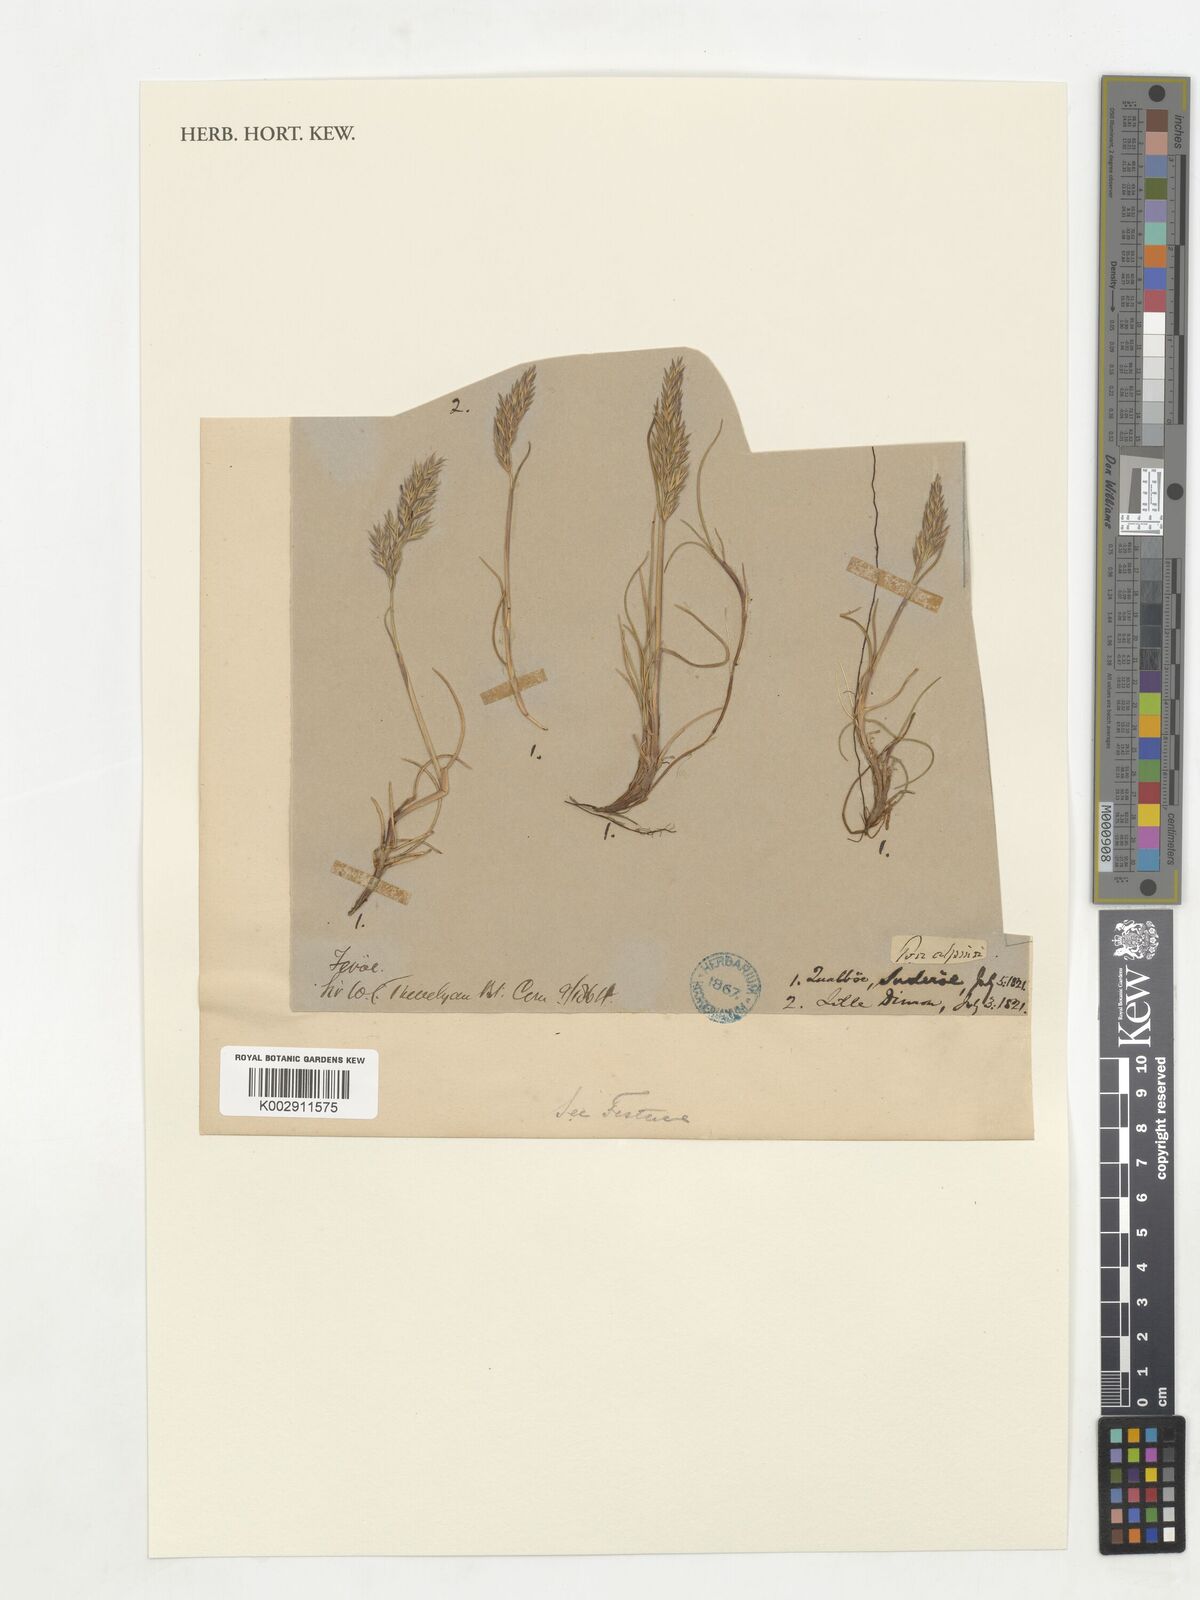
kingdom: Plantae
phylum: Tracheophyta
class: Liliopsida
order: Poales
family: Poaceae
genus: Festuca
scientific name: Festuca rubra
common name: Red fescue
